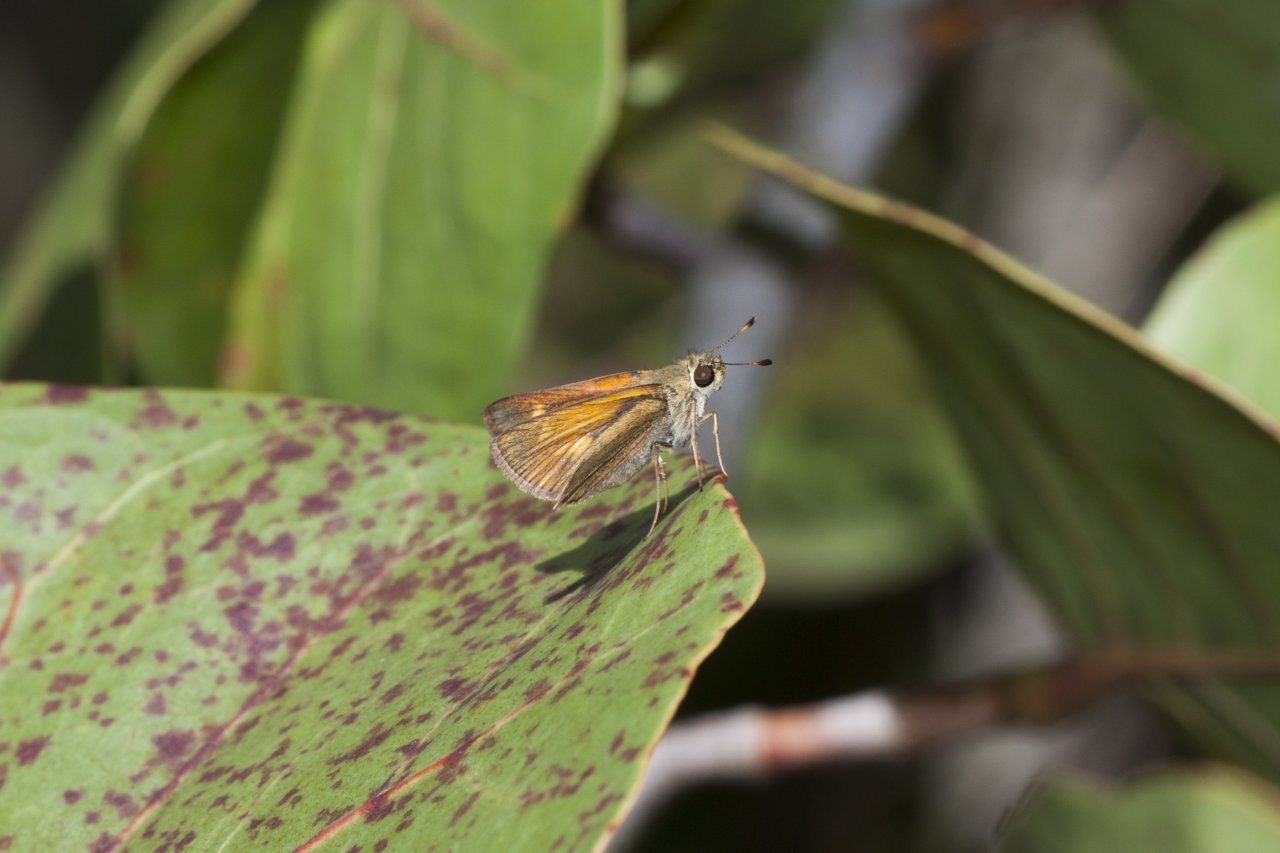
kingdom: Animalia
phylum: Arthropoda
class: Insecta
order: Lepidoptera
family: Hesperiidae
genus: Wallengrenia
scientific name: Wallengrenia otho
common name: Southern Broken-Dash
